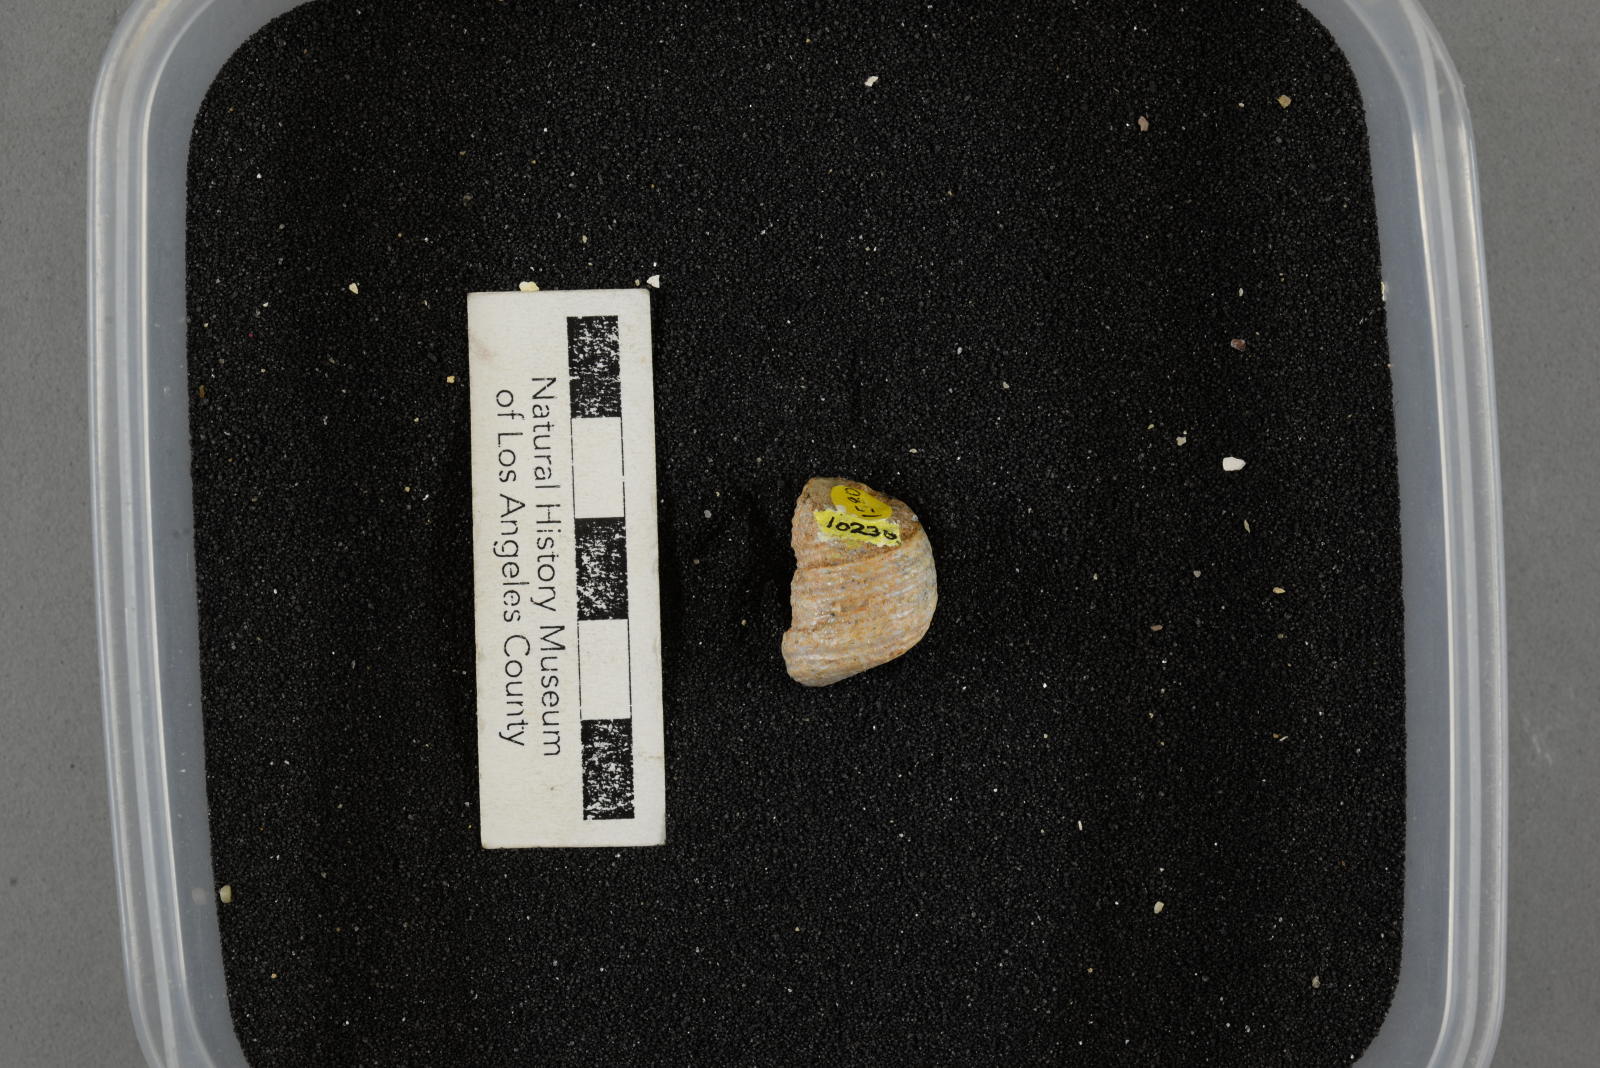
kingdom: Animalia
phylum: Mollusca
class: Gastropoda
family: Turritellidae
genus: Turritella
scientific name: Turritella
